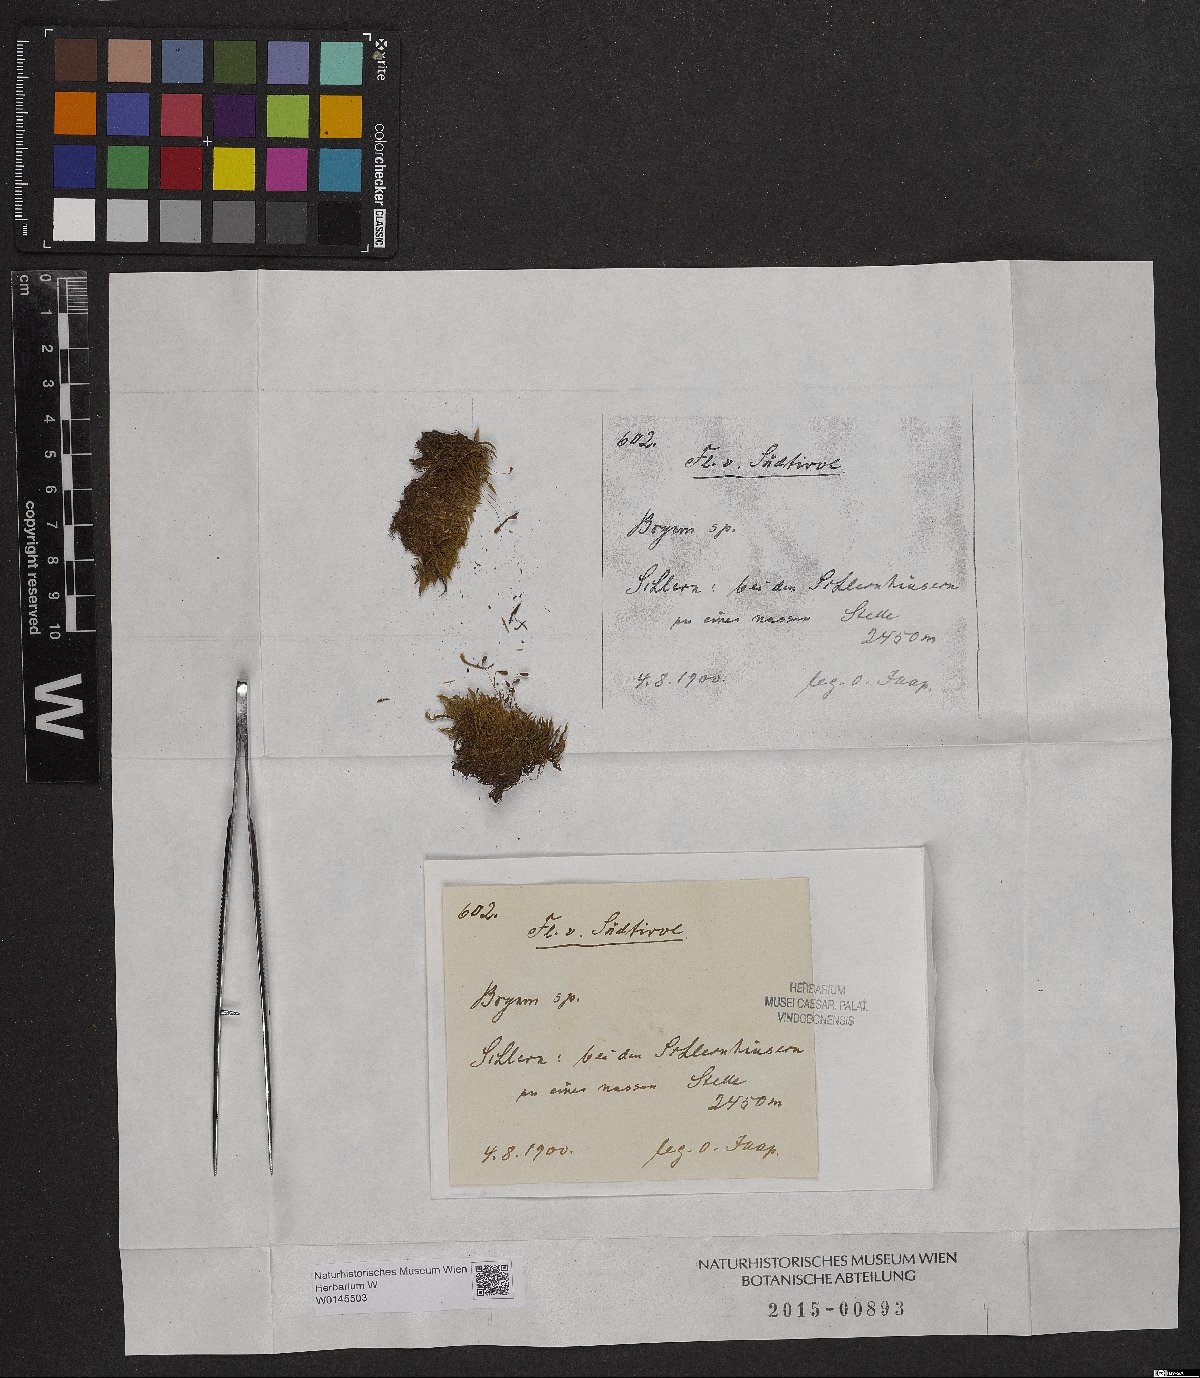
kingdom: Plantae
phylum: Bryophyta
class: Bryopsida
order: Bryales
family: Bryaceae
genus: Bryum
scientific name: Bryum
